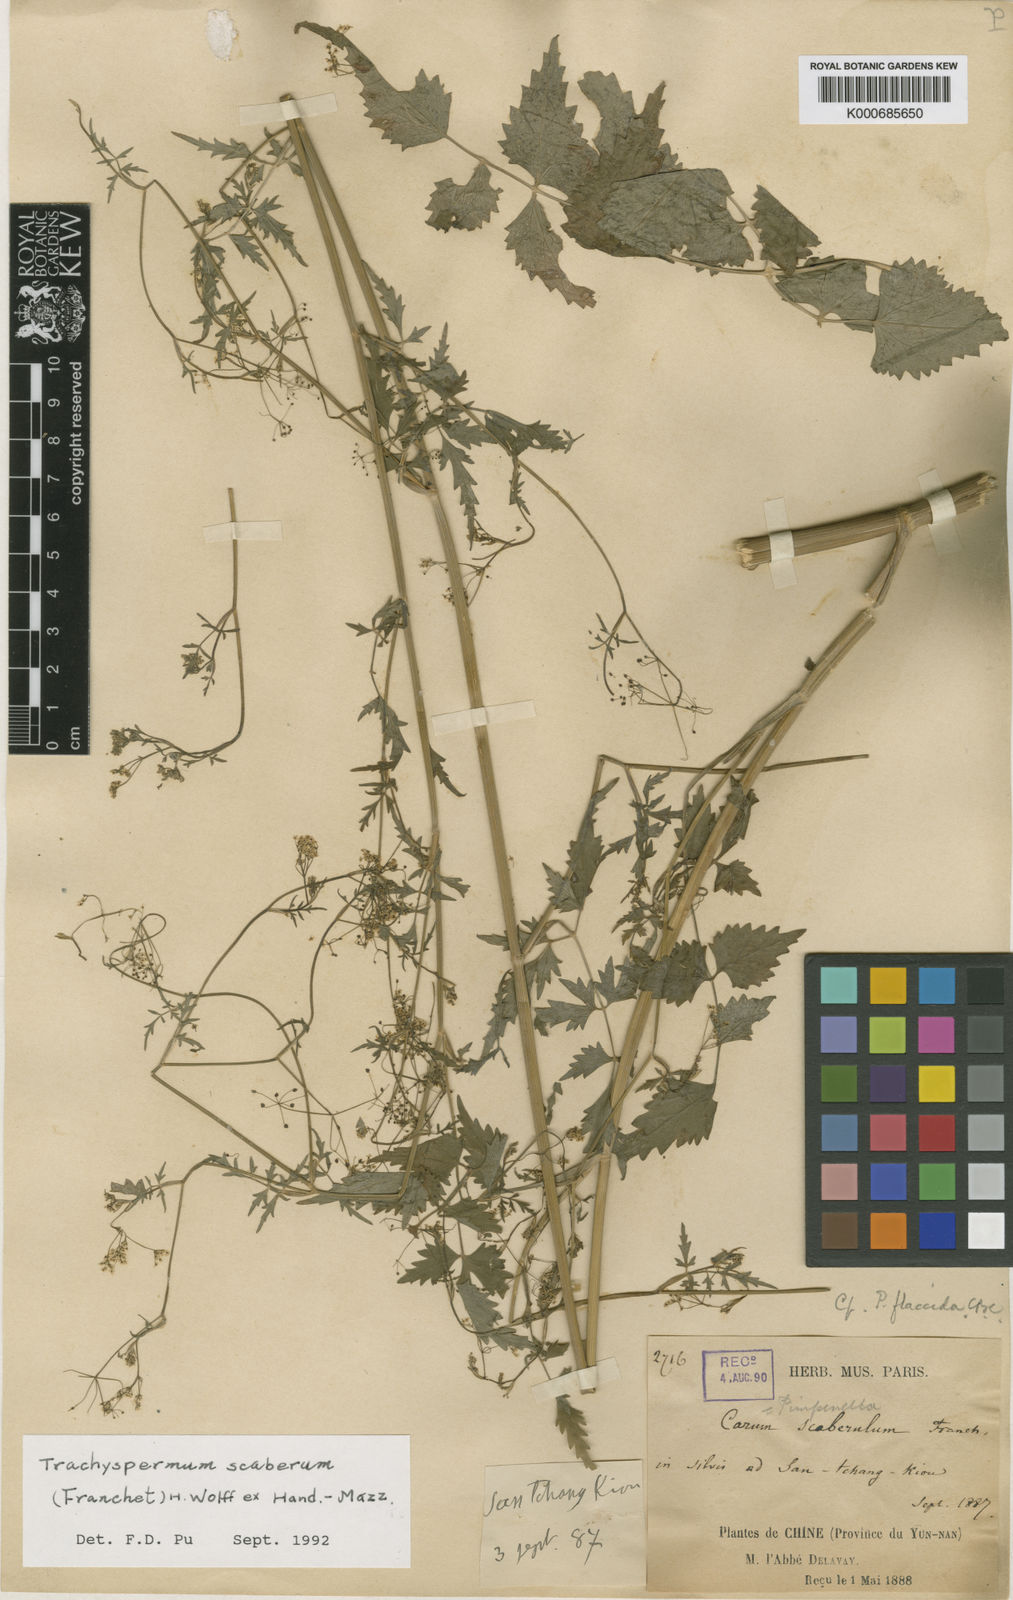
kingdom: Plantae
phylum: Tracheophyta
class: Magnoliopsida
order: Apiales
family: Apiaceae
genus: Pimpinella
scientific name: Pimpinella scaberula
